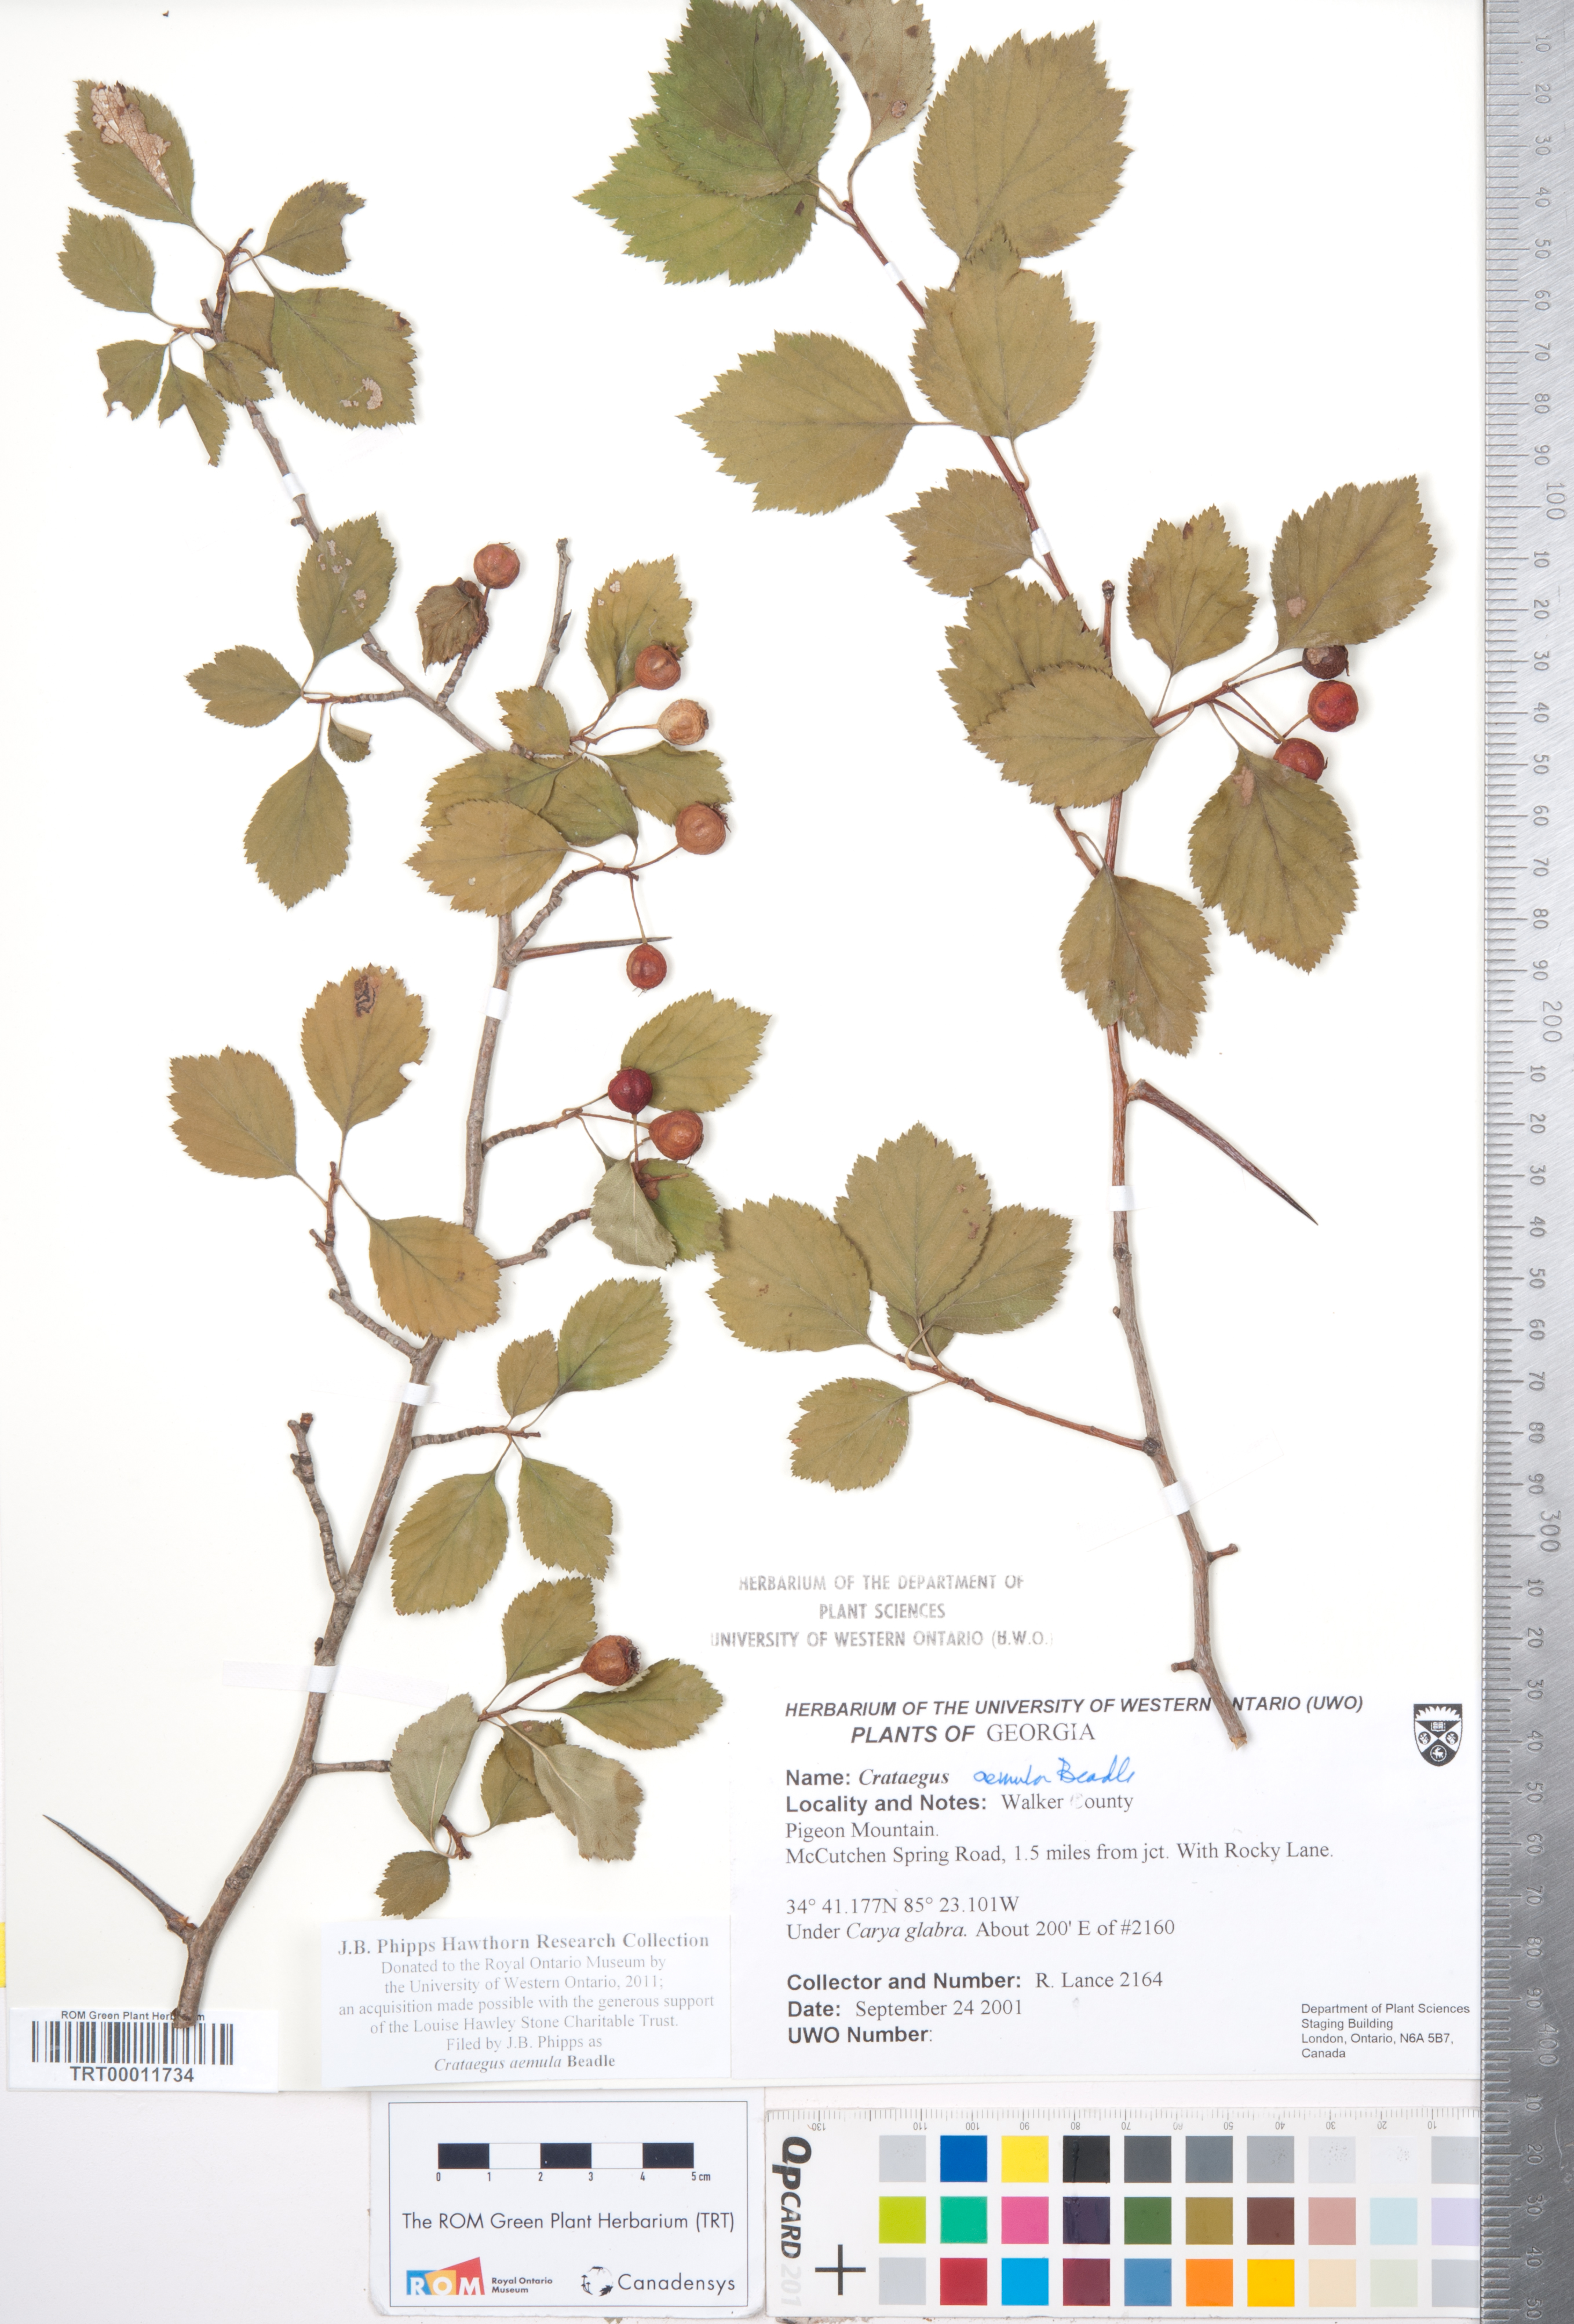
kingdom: Plantae
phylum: Tracheophyta
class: Magnoliopsida
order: Rosales
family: Rosaceae
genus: Crataegus
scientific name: Crataegus iracunda
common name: Stolon-bearing hawthorn
